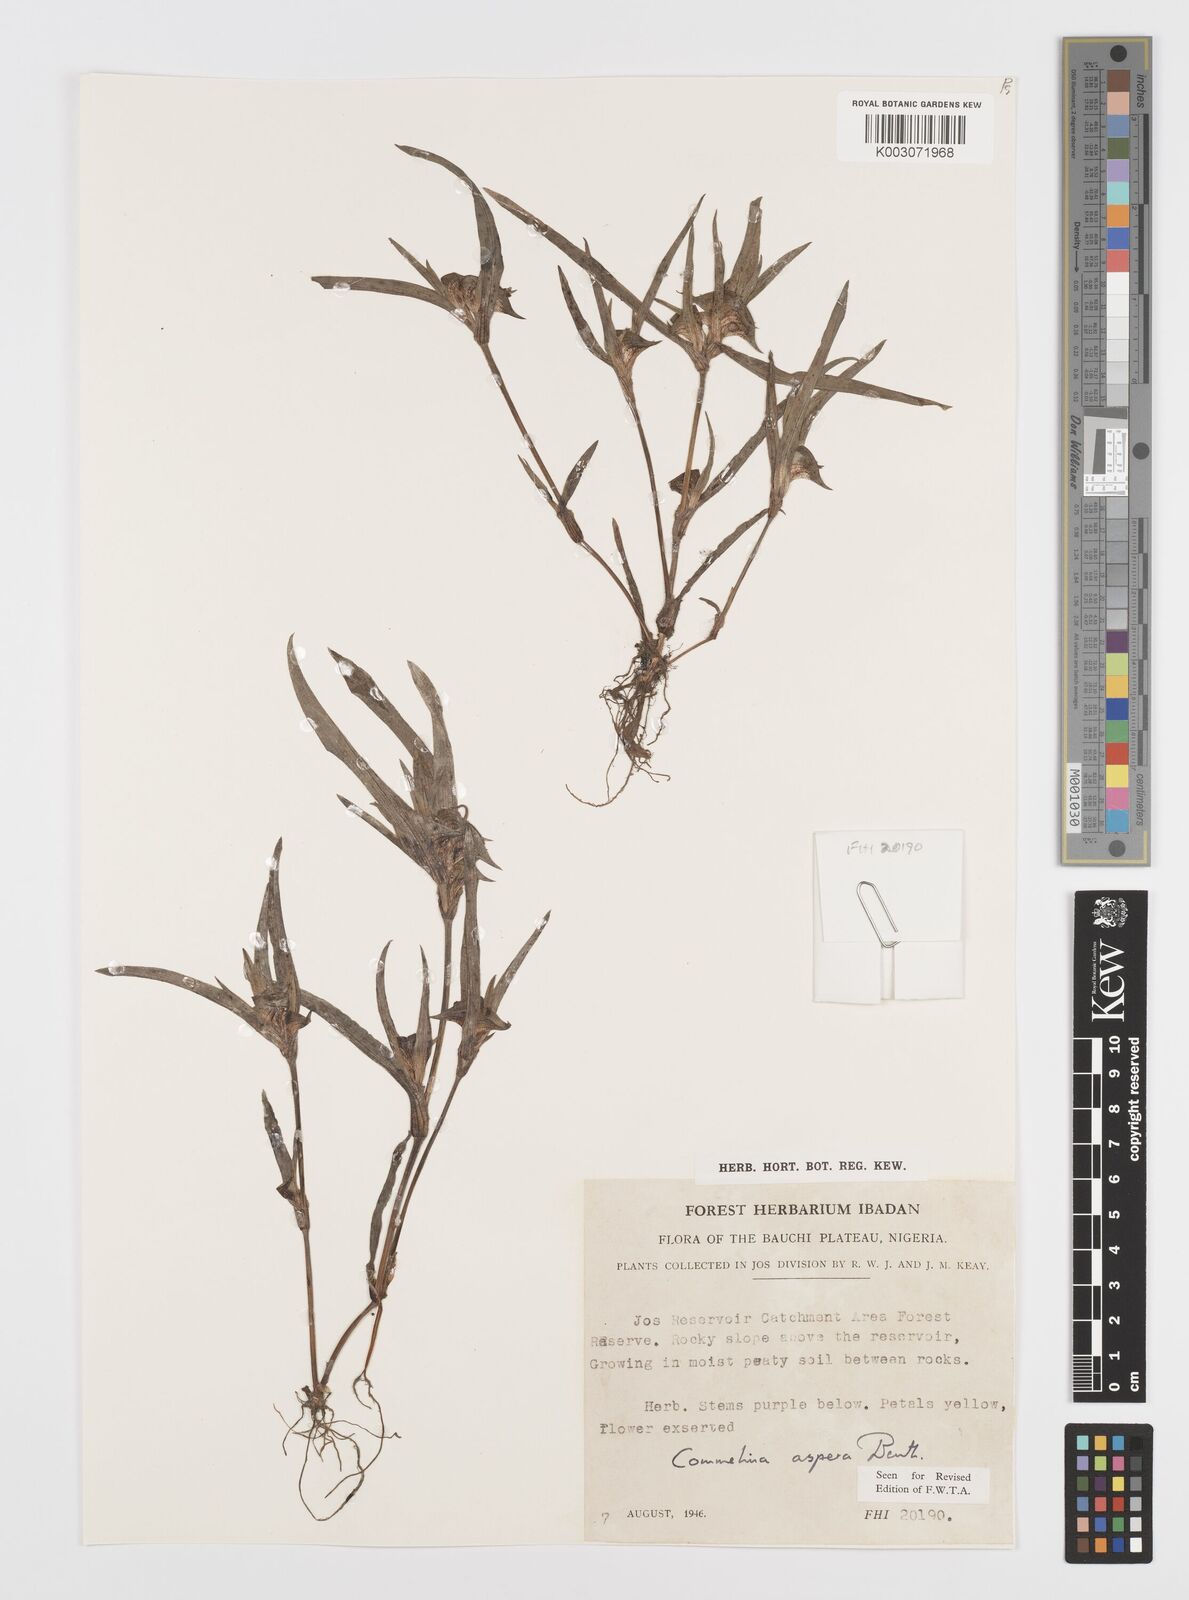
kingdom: Plantae
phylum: Tracheophyta
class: Liliopsida
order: Commelinales
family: Commelinaceae
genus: Commelina
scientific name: Commelina aspera
